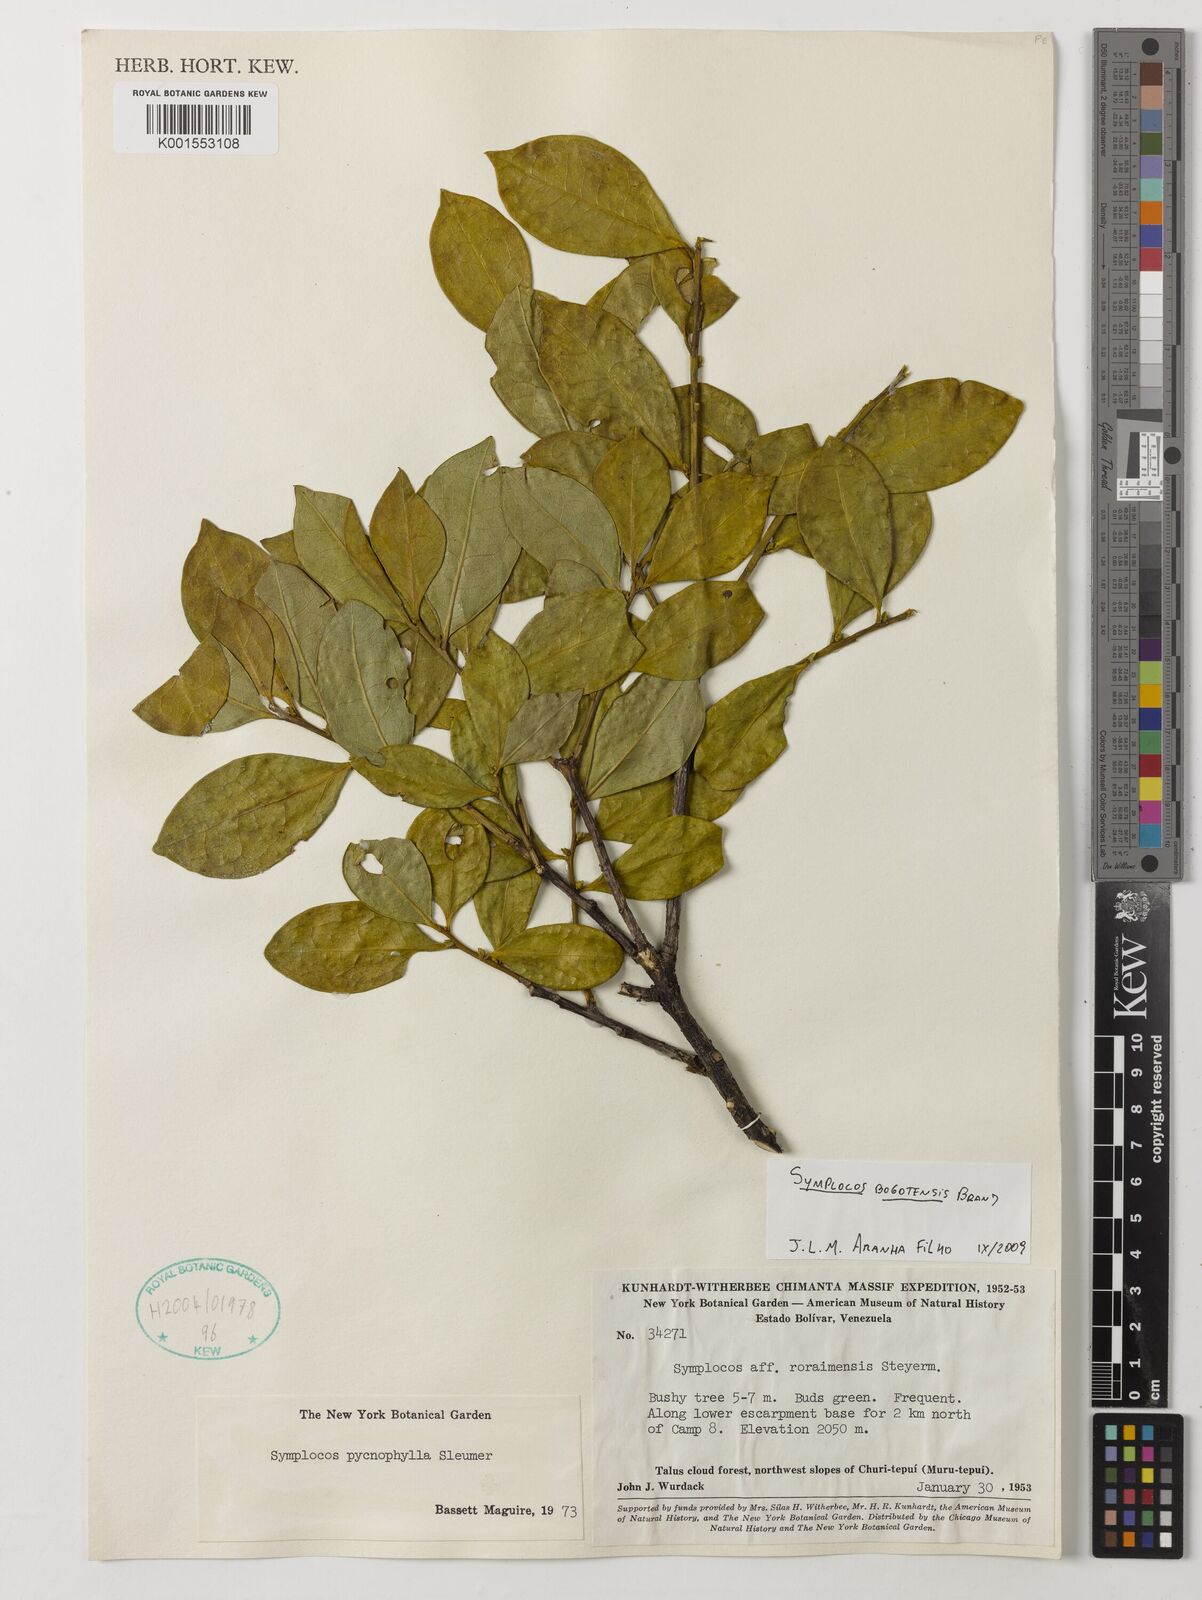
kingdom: Plantae
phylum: Tracheophyta
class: Magnoliopsida
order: Ericales
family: Symplocaceae
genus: Symplocos
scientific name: Symplocos bogotensis
